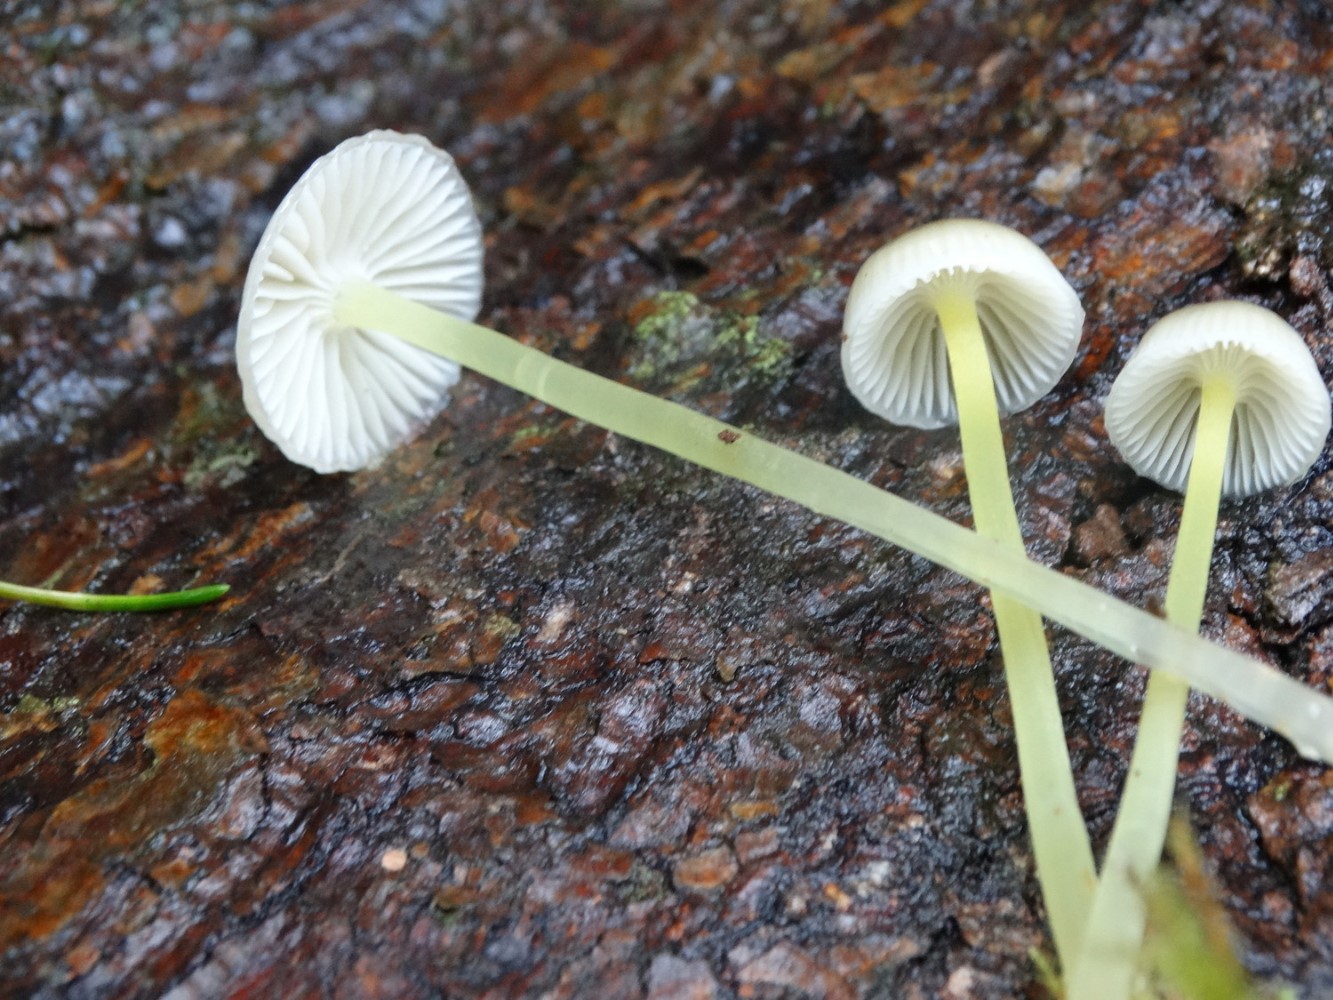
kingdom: Fungi
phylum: Basidiomycota
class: Agaricomycetes
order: Agaricales
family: Mycenaceae
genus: Mycena
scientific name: Mycena epipterygia
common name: gulstokket huesvamp
